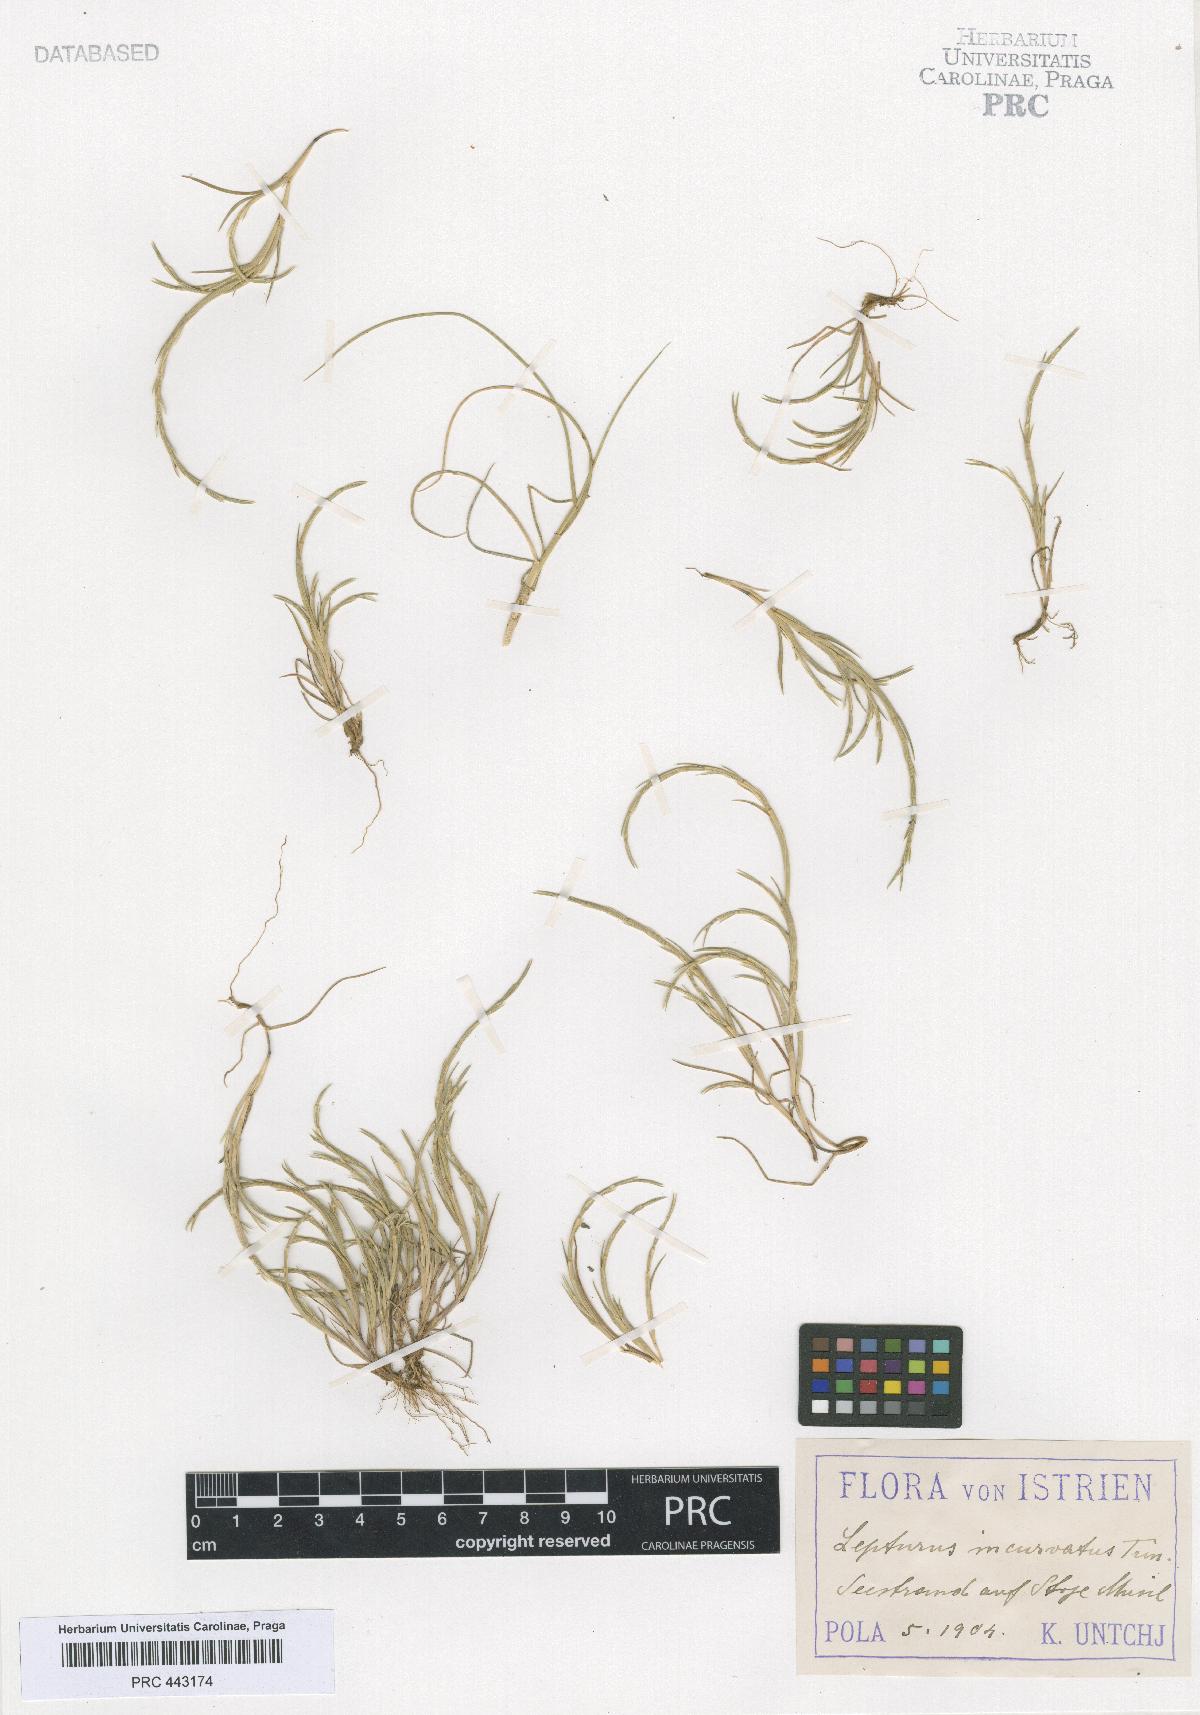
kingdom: Plantae
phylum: Tracheophyta
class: Liliopsida
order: Poales
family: Poaceae
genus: Parapholis
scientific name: Parapholis incurva
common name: Curved sicklegrass
